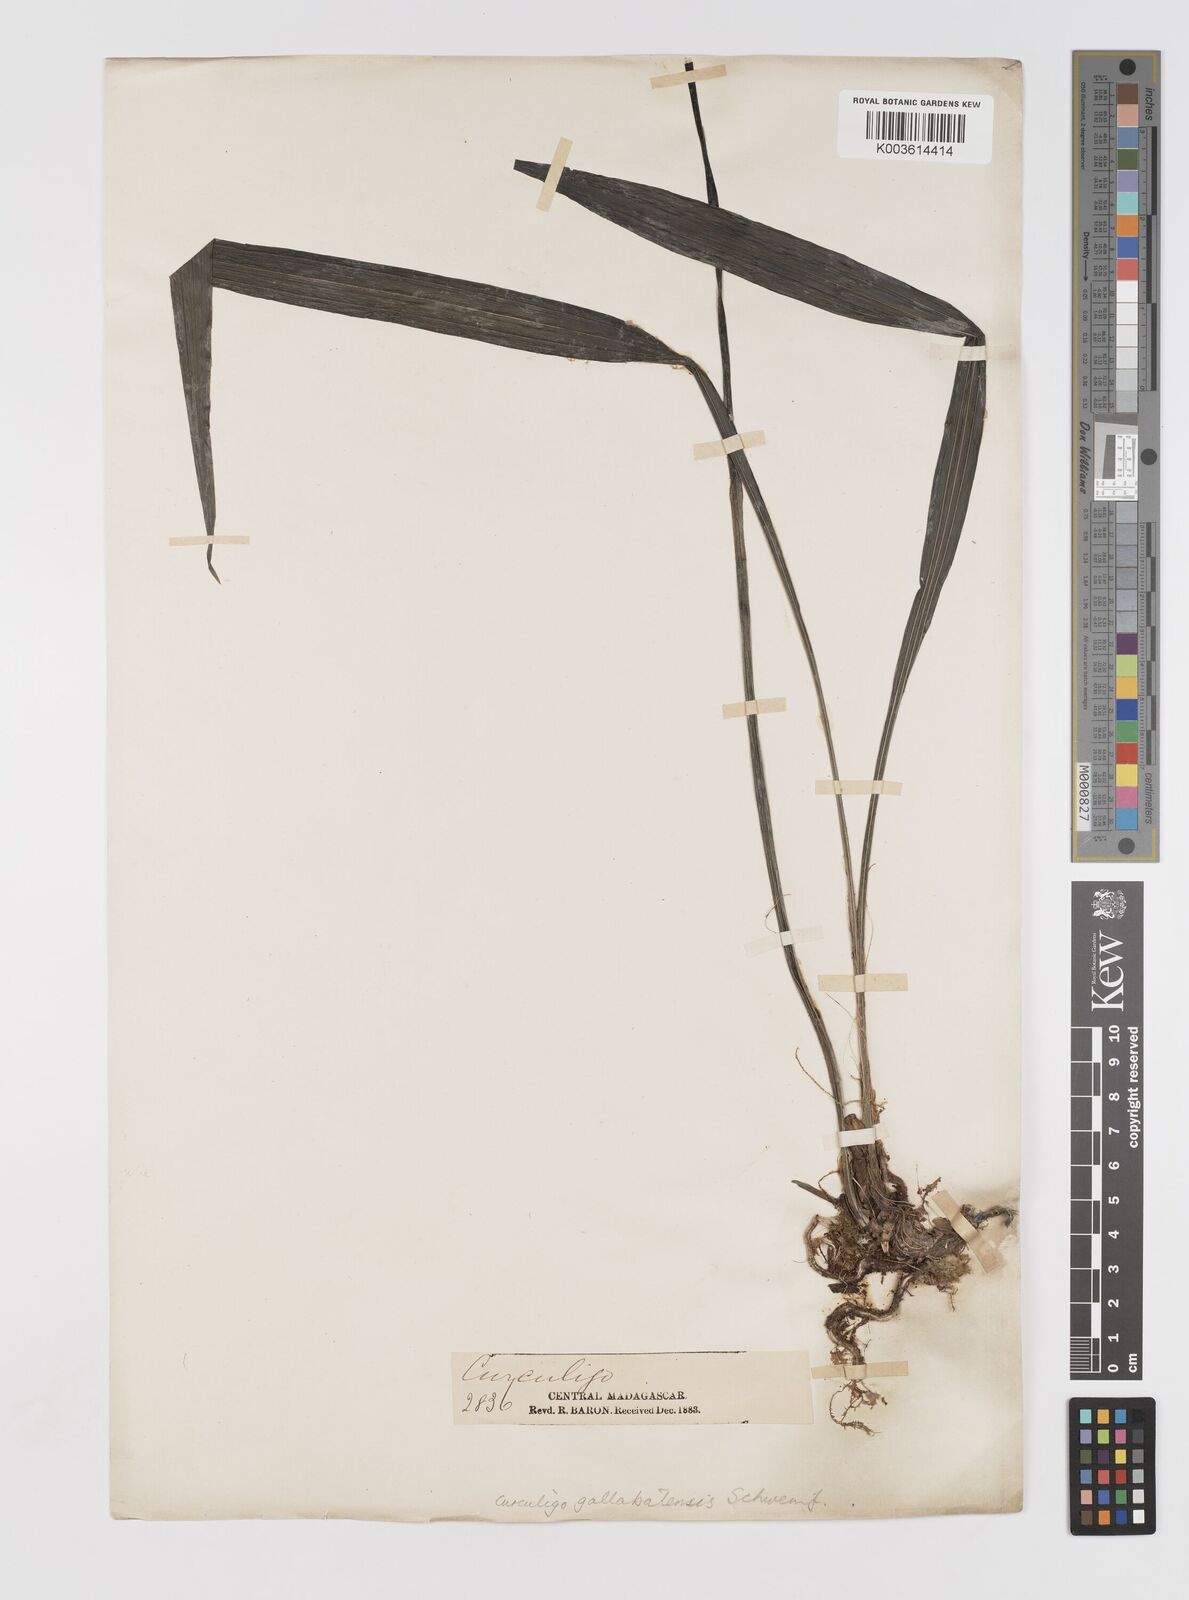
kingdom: Plantae
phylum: Tracheophyta
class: Liliopsida
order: Asparagales
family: Hypoxidaceae
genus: Curculigo
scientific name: Curculigo pilosa
